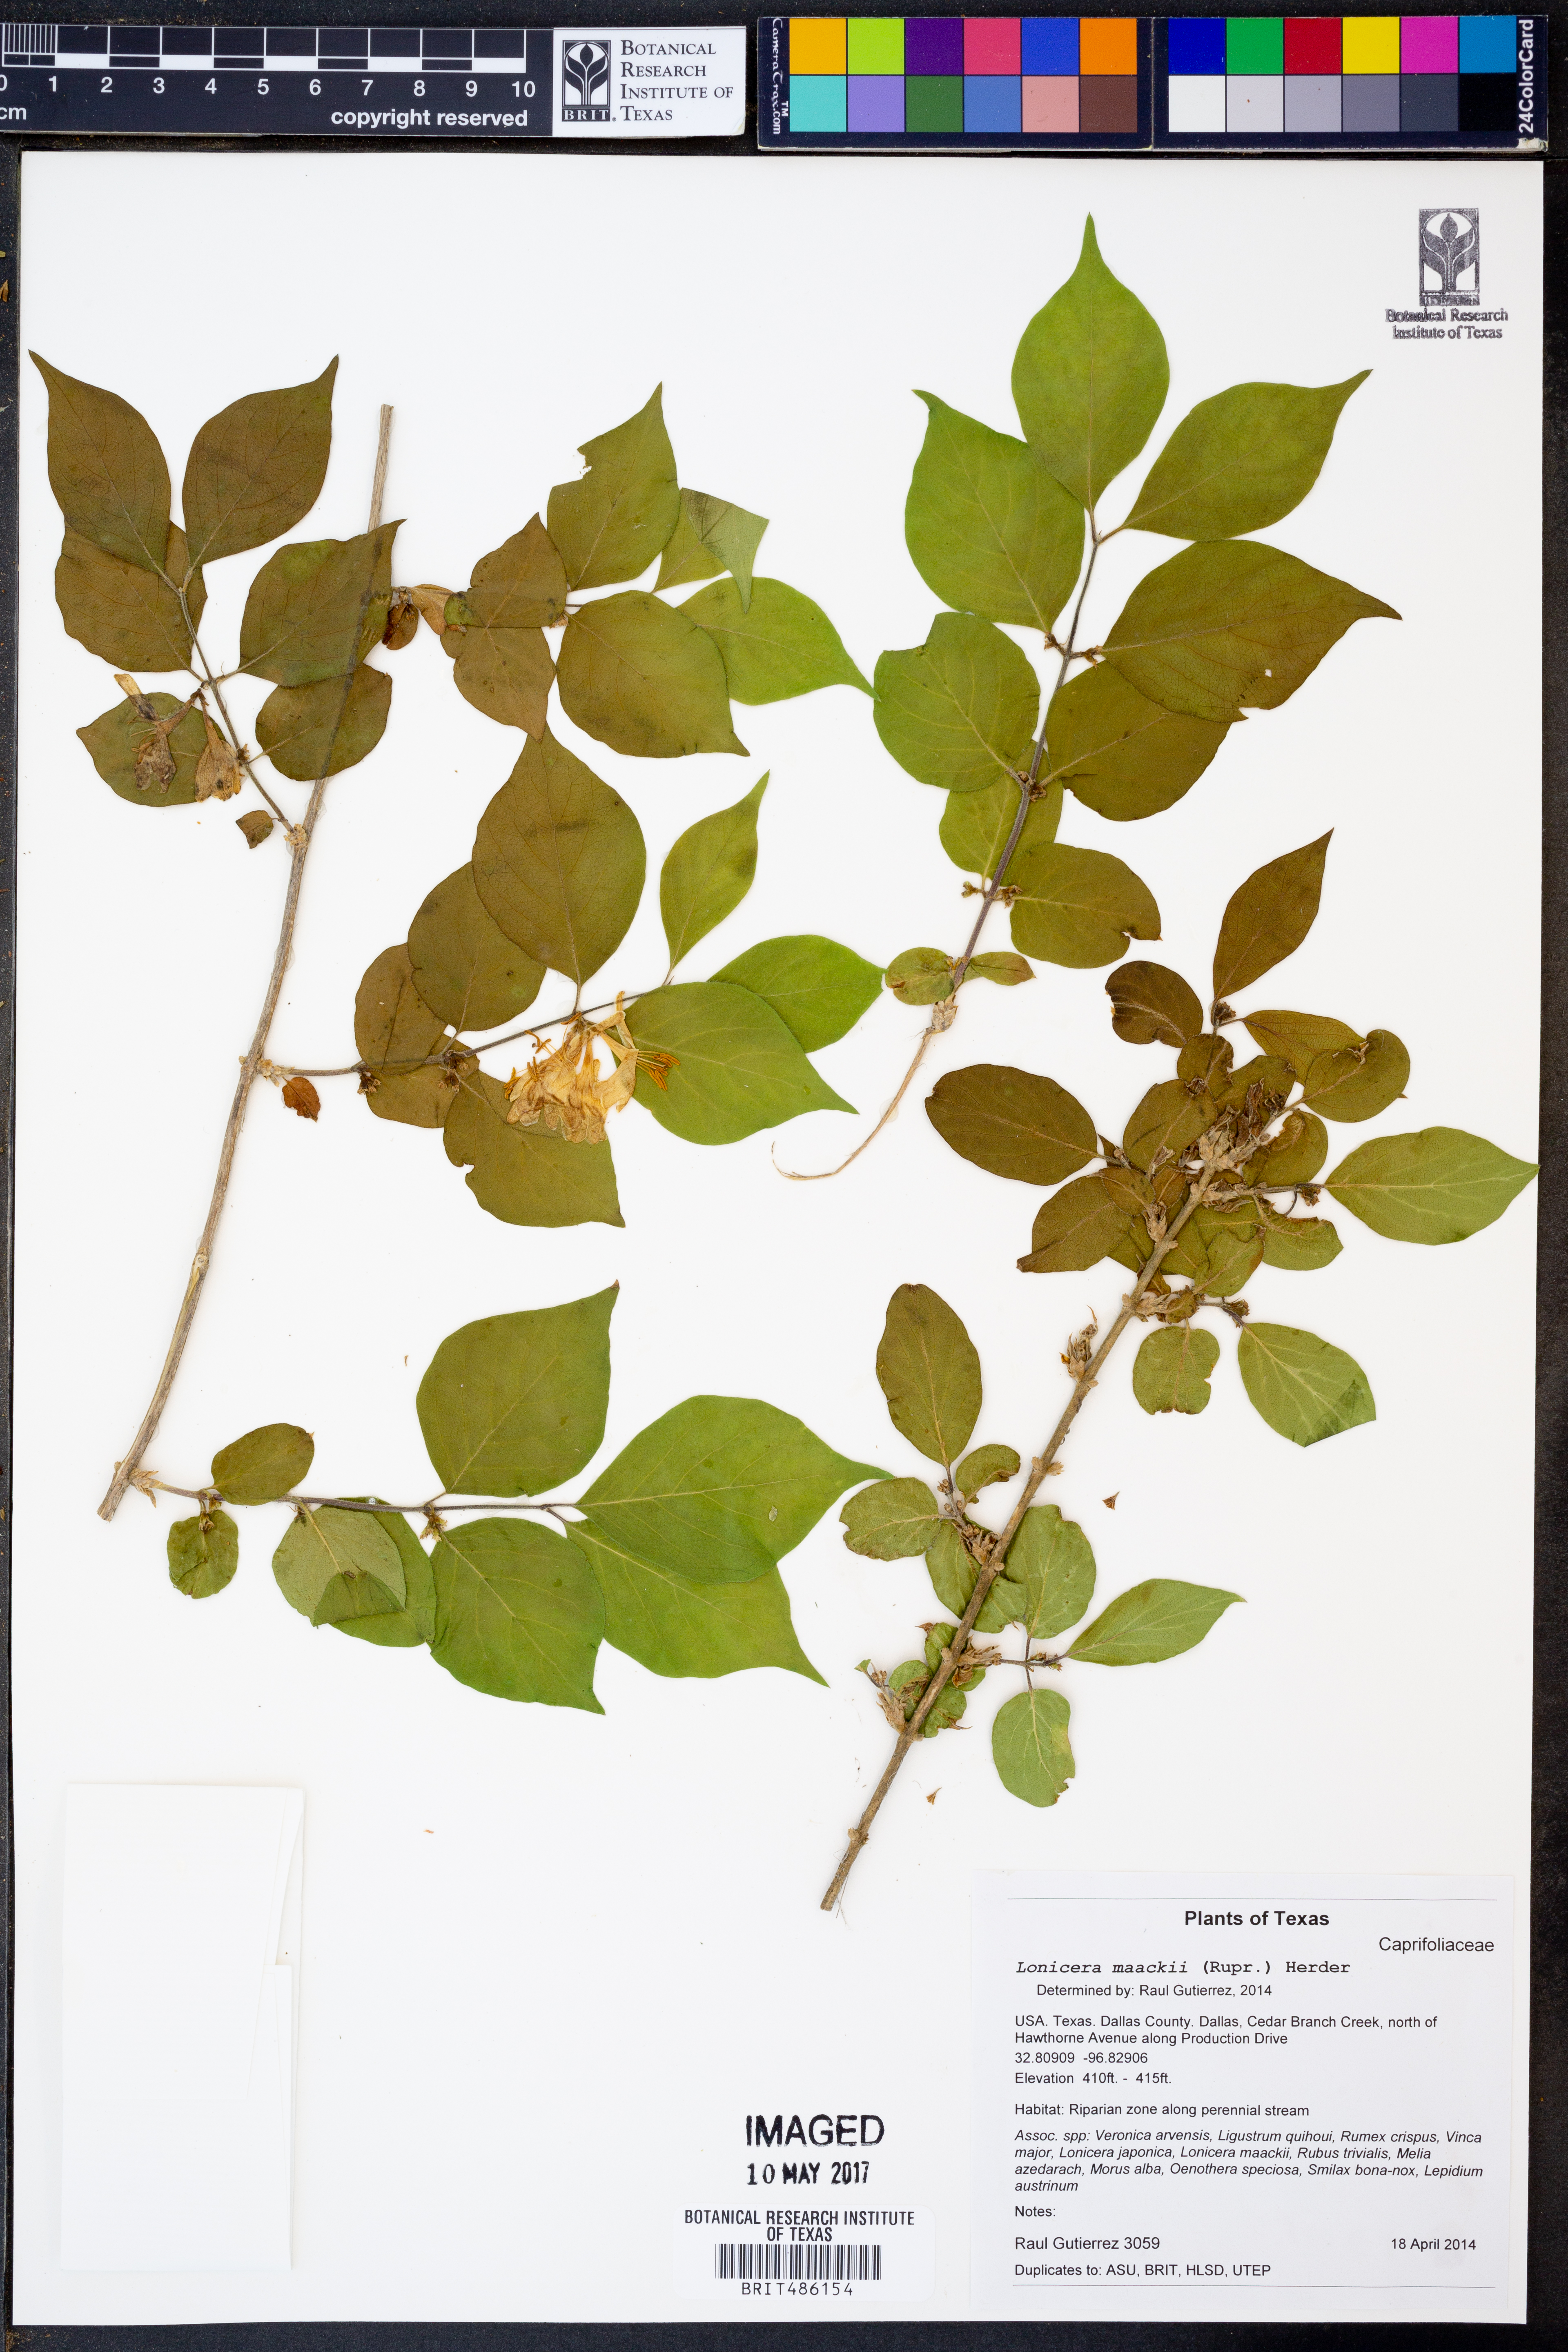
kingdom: Plantae
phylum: Tracheophyta
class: Magnoliopsida
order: Dipsacales
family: Caprifoliaceae
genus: Lonicera
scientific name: Lonicera maackii
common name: Amur honeysuckle
